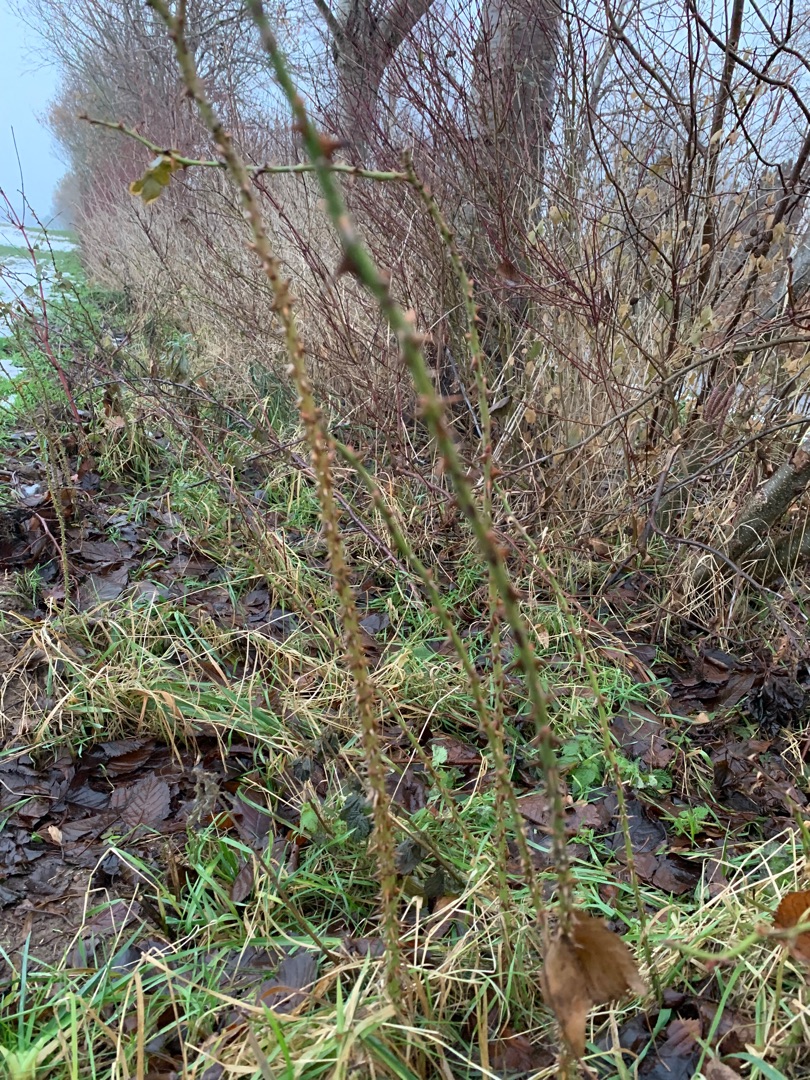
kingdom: Plantae
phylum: Tracheophyta
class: Magnoliopsida
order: Rosales
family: Rosaceae
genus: Rosa
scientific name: Rosa canina
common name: Hunde-rose
